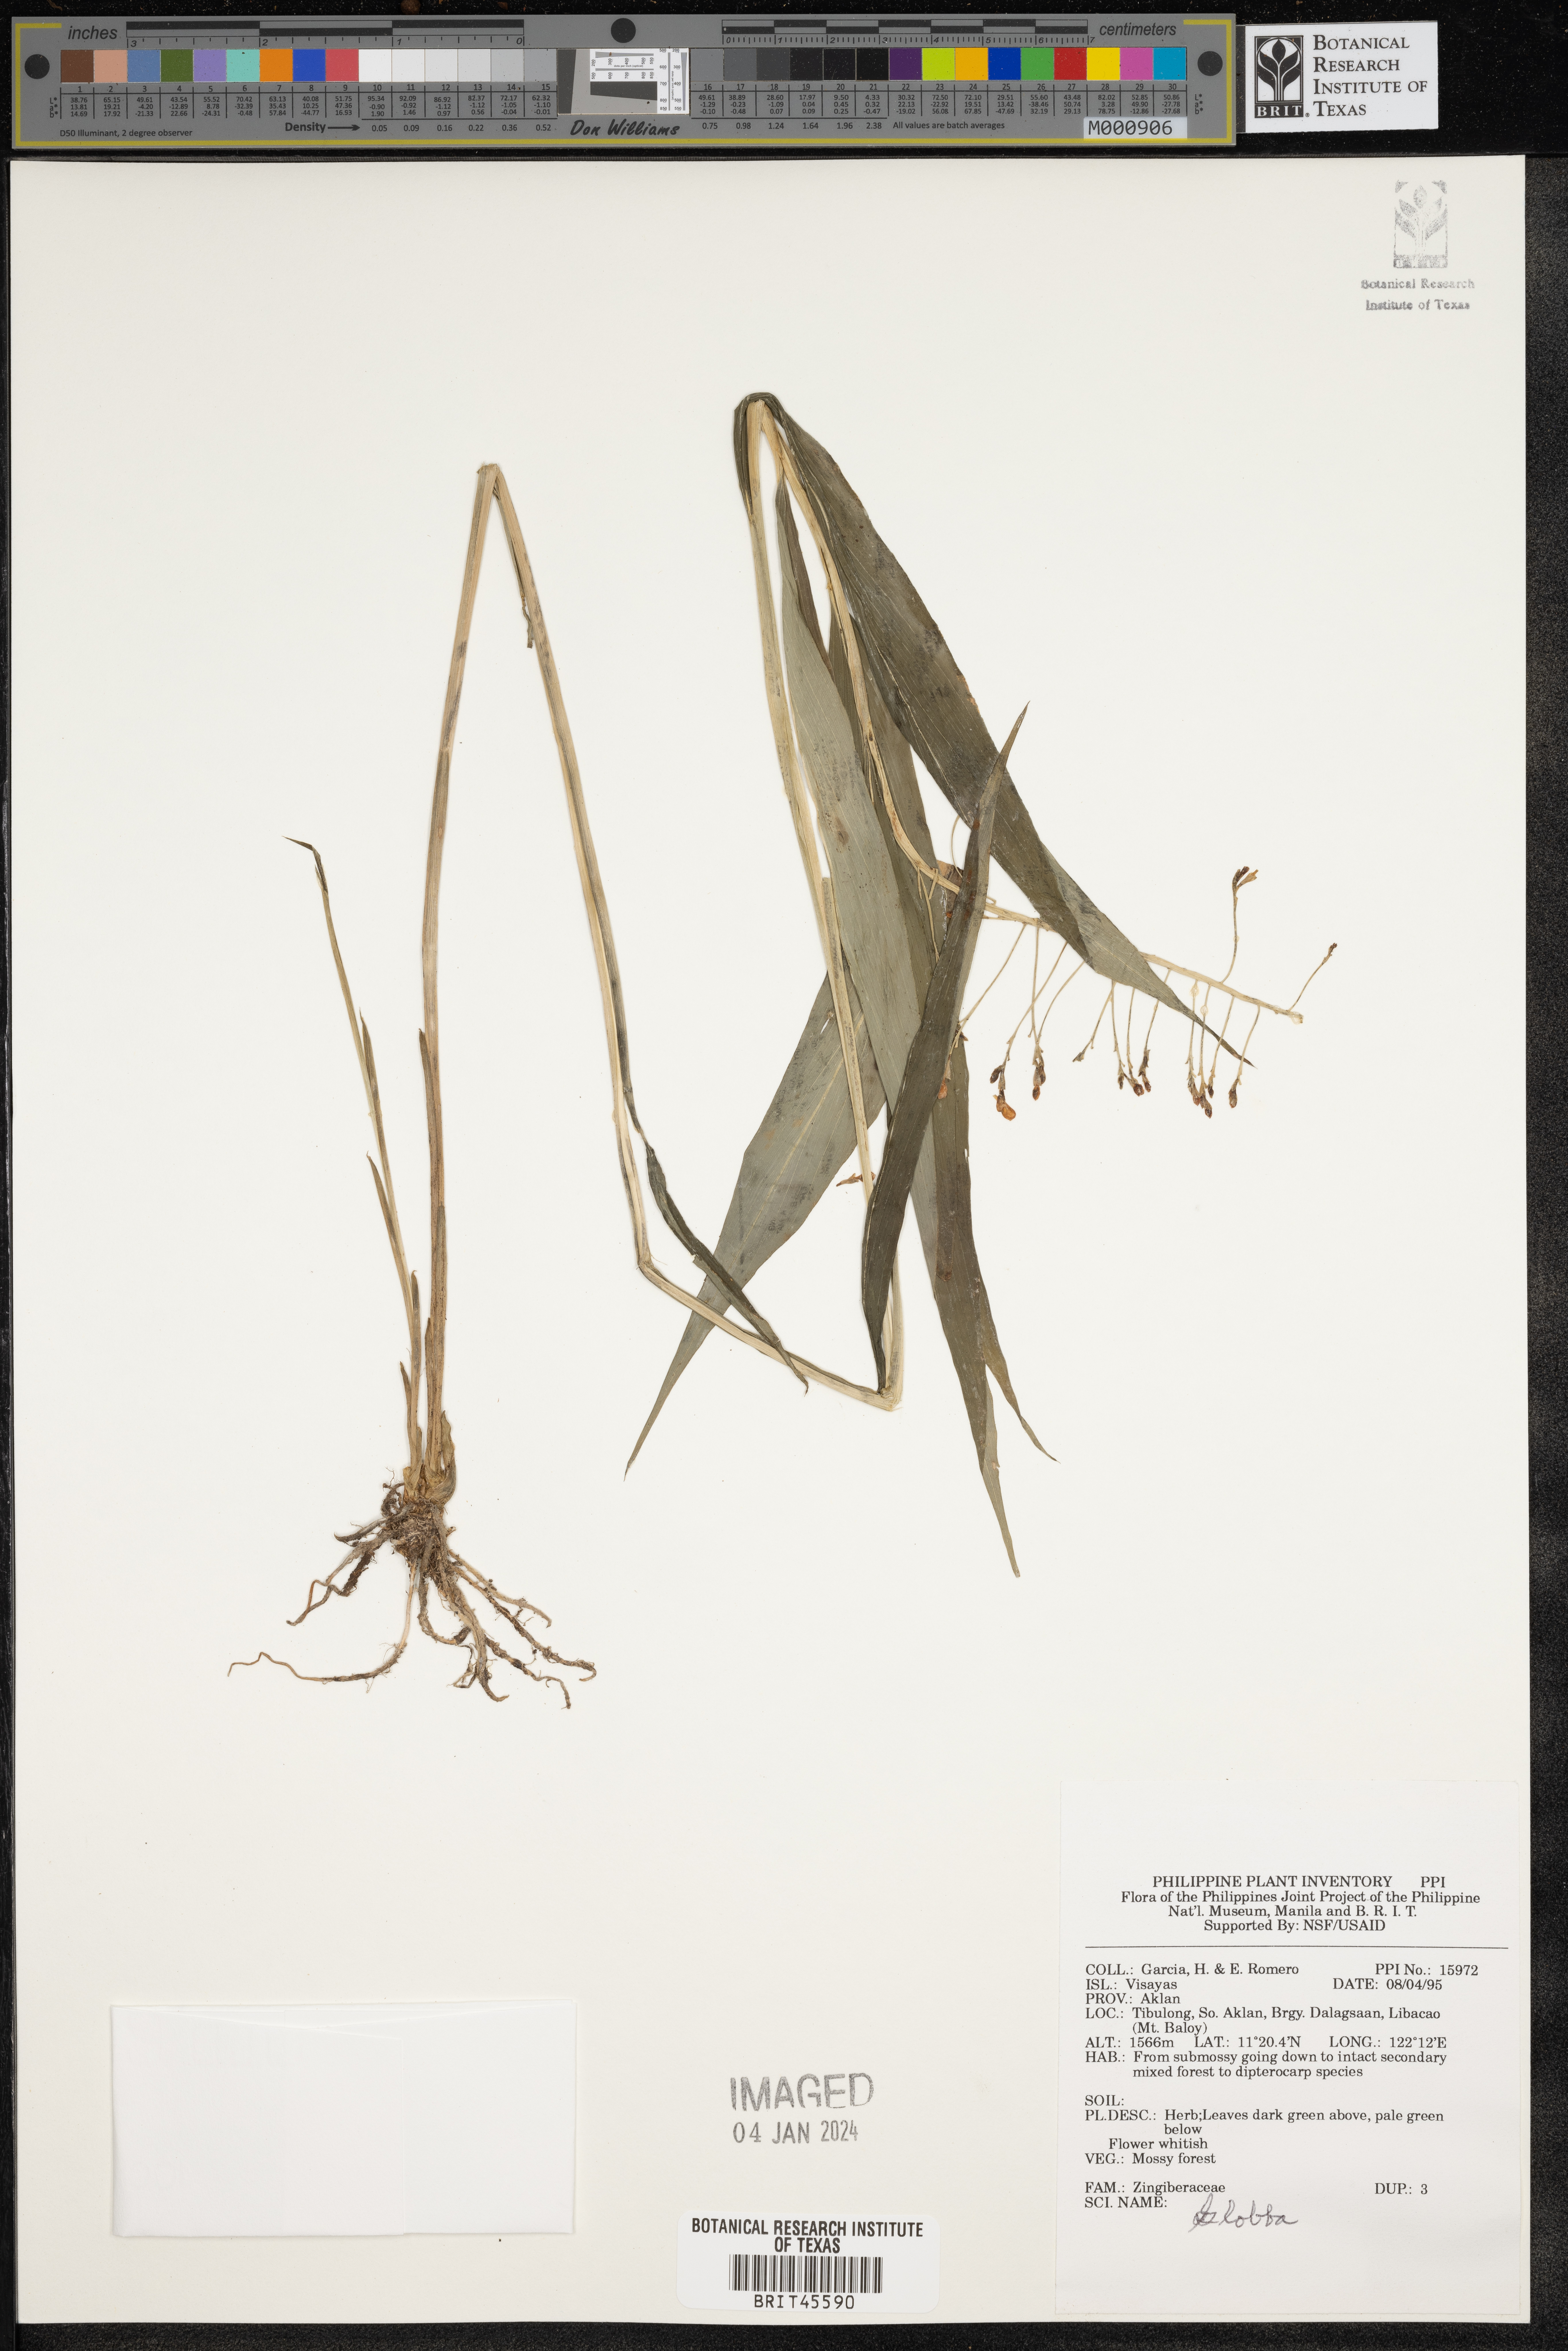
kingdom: Plantae
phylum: Tracheophyta
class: Liliopsida
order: Zingiberales
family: Zingiberaceae
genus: Globba
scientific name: Globba
